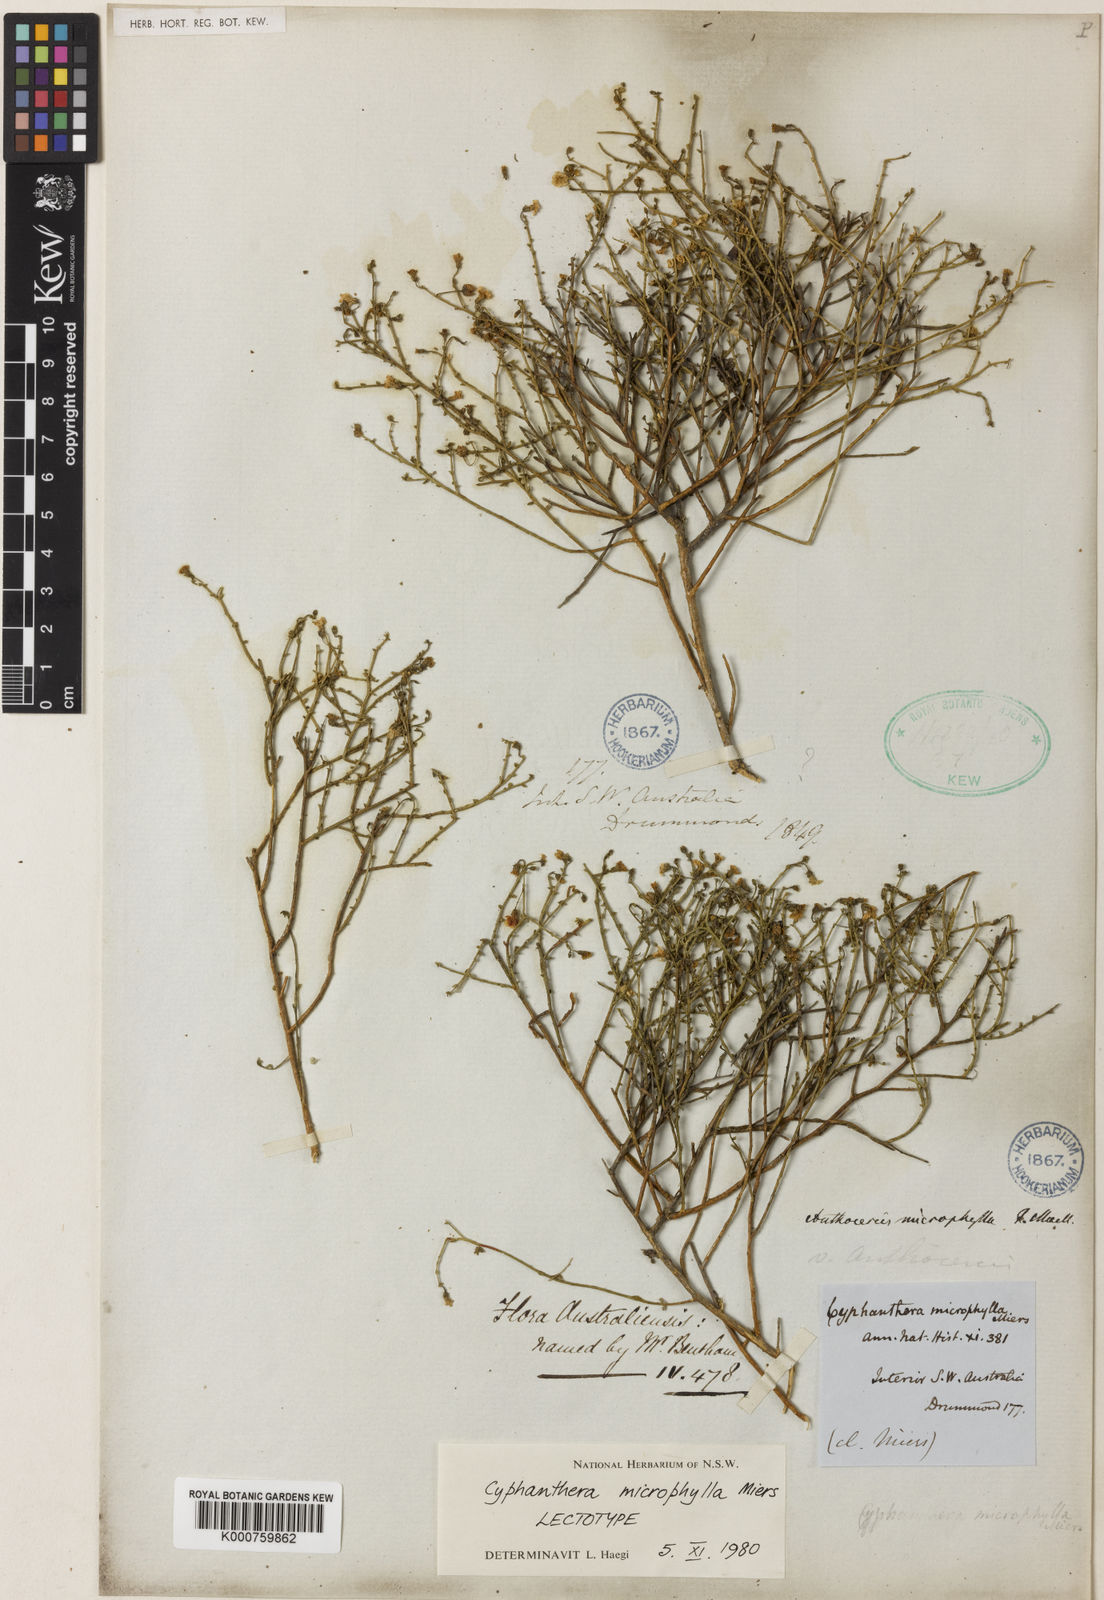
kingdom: Plantae
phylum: Tracheophyta
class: Magnoliopsida
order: Solanales
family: Solanaceae
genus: Cyphanthera
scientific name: Cyphanthera microphylla
